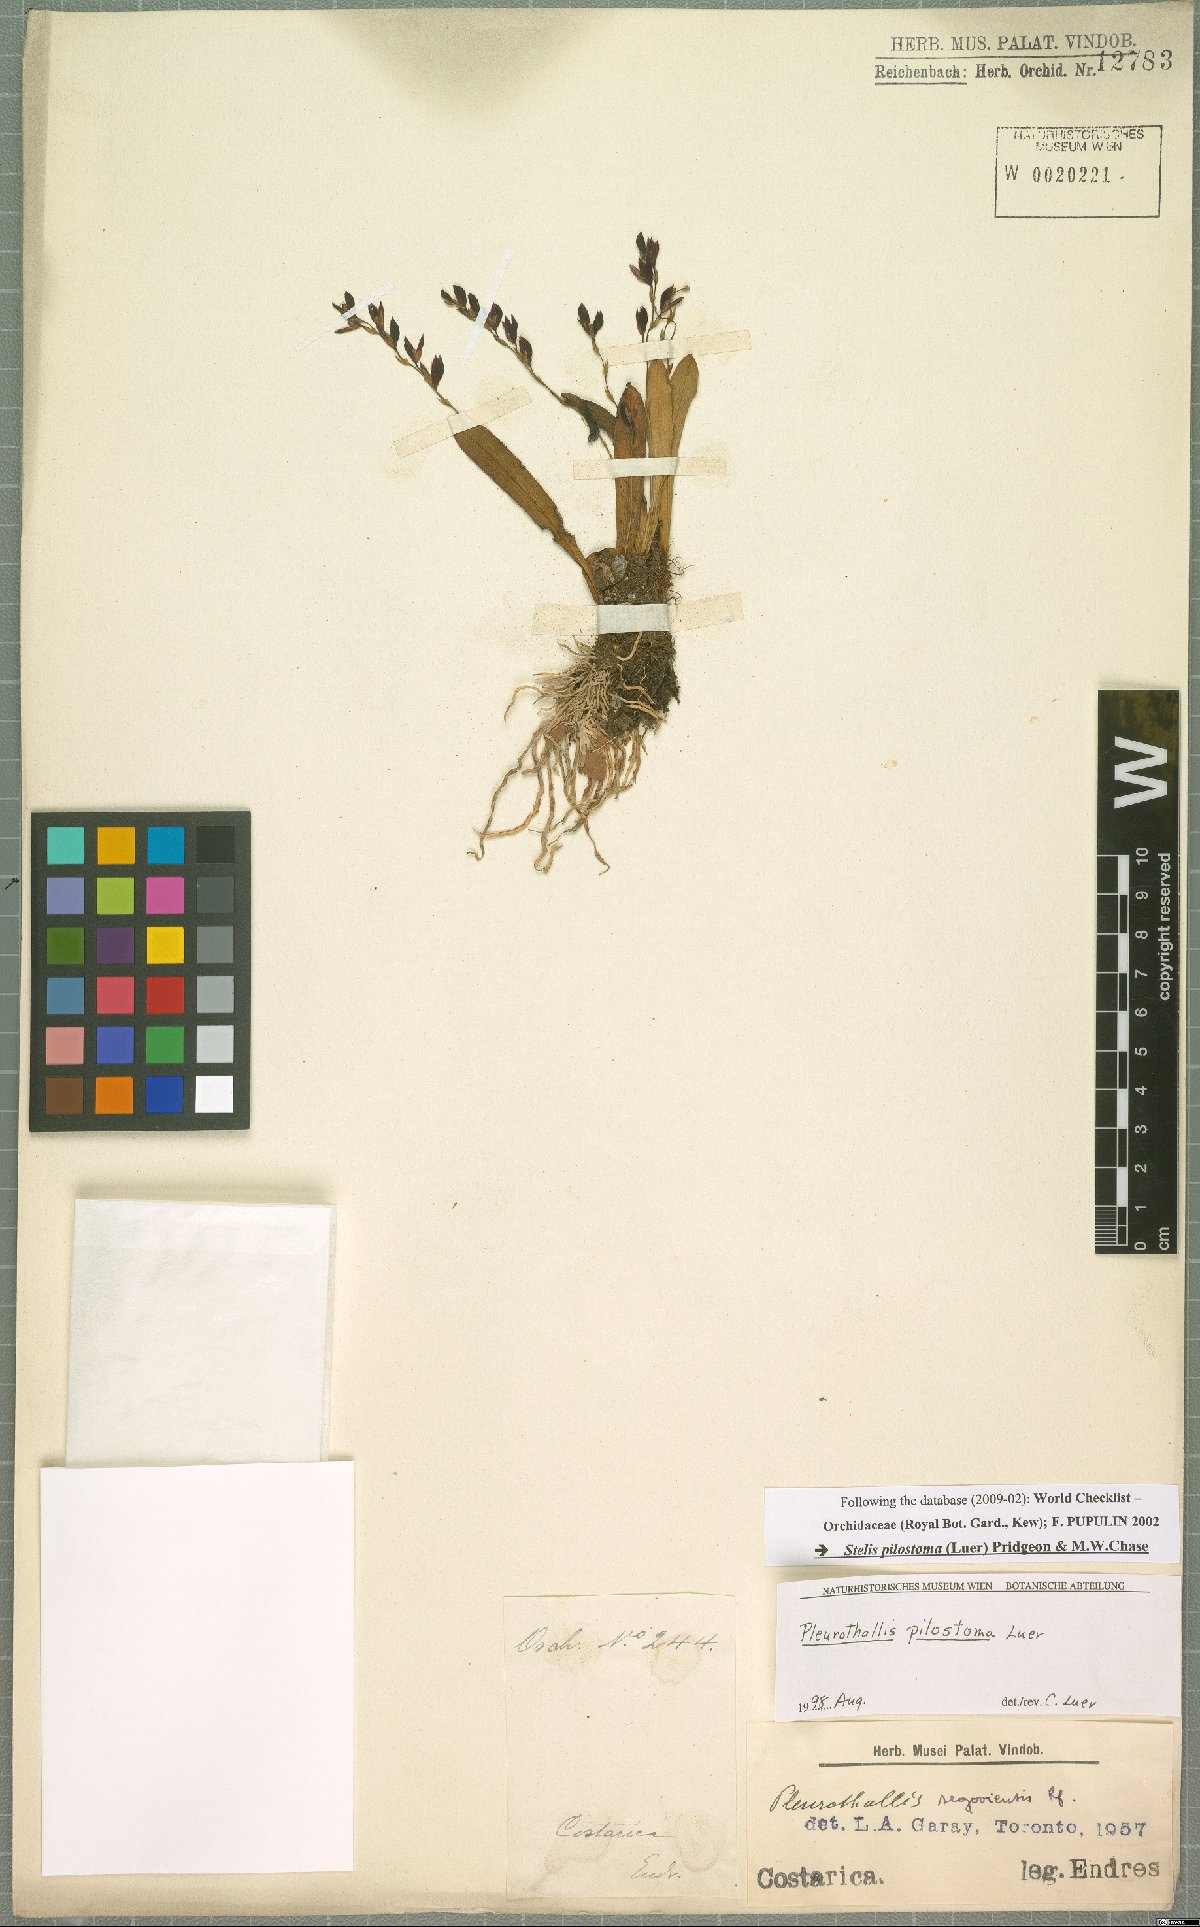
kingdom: Plantae
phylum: Tracheophyta
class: Liliopsida
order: Asparagales
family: Orchidaceae
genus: Stelis
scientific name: Stelis pilostoma
